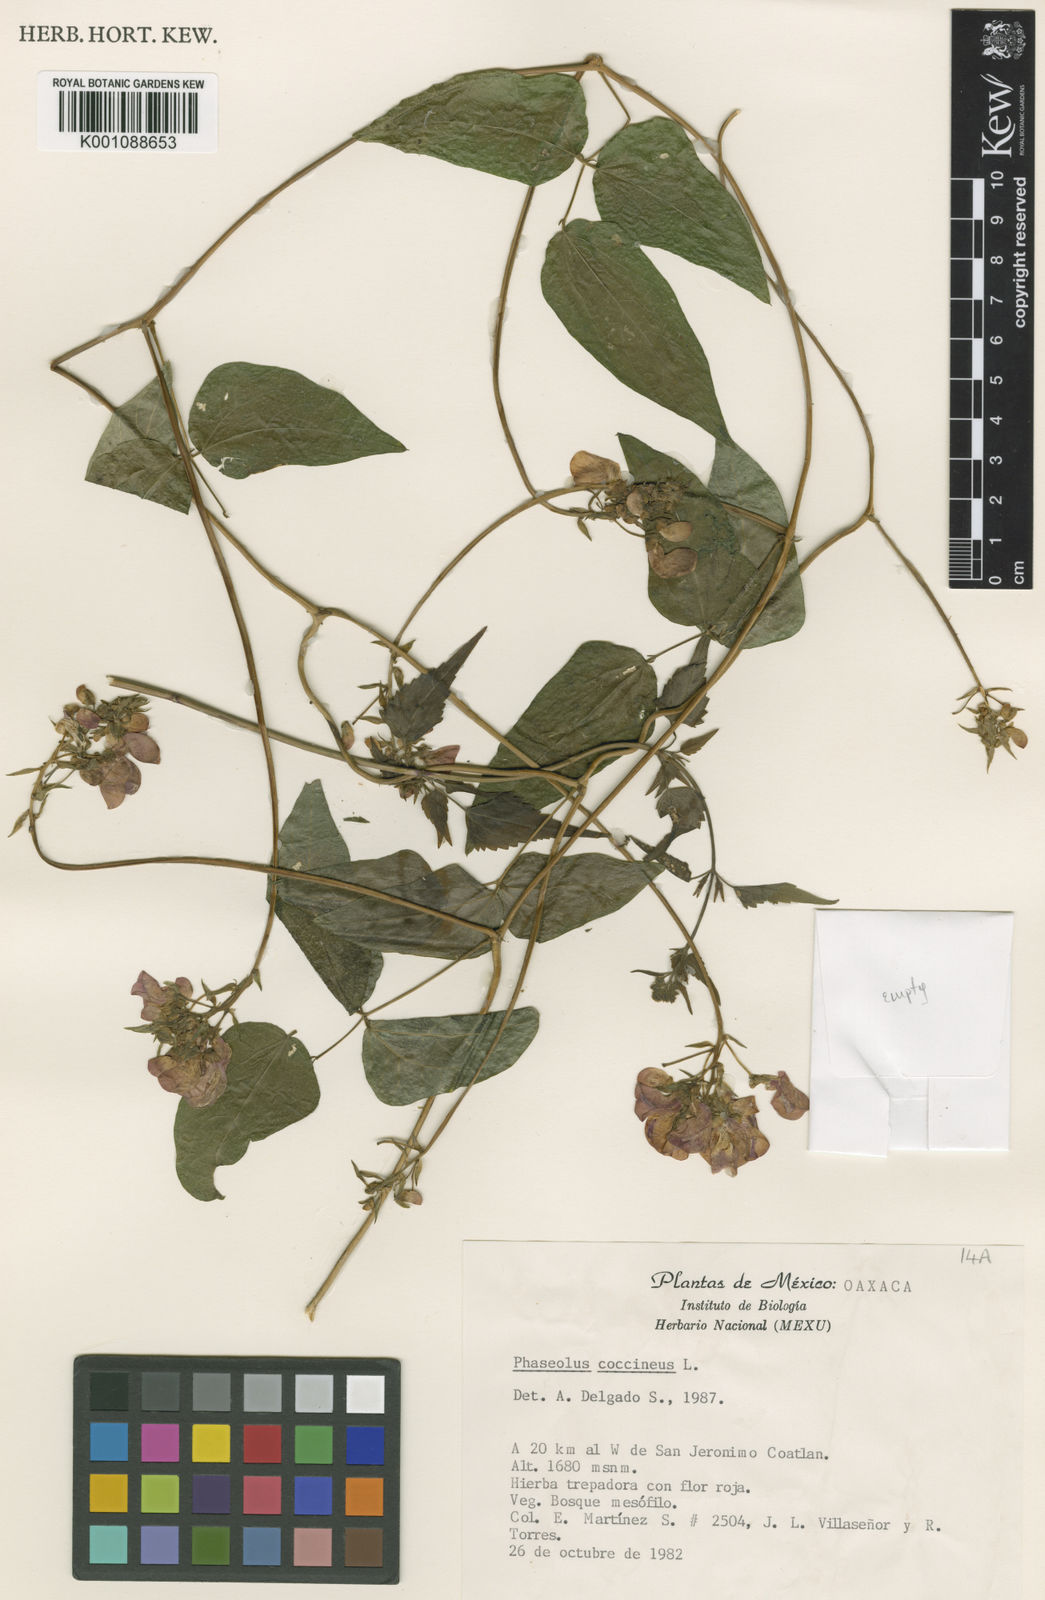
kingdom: Plantae
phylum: Tracheophyta
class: Magnoliopsida
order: Fabales
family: Fabaceae
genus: Phaseolus
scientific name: Phaseolus coccineus
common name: Runner bean
